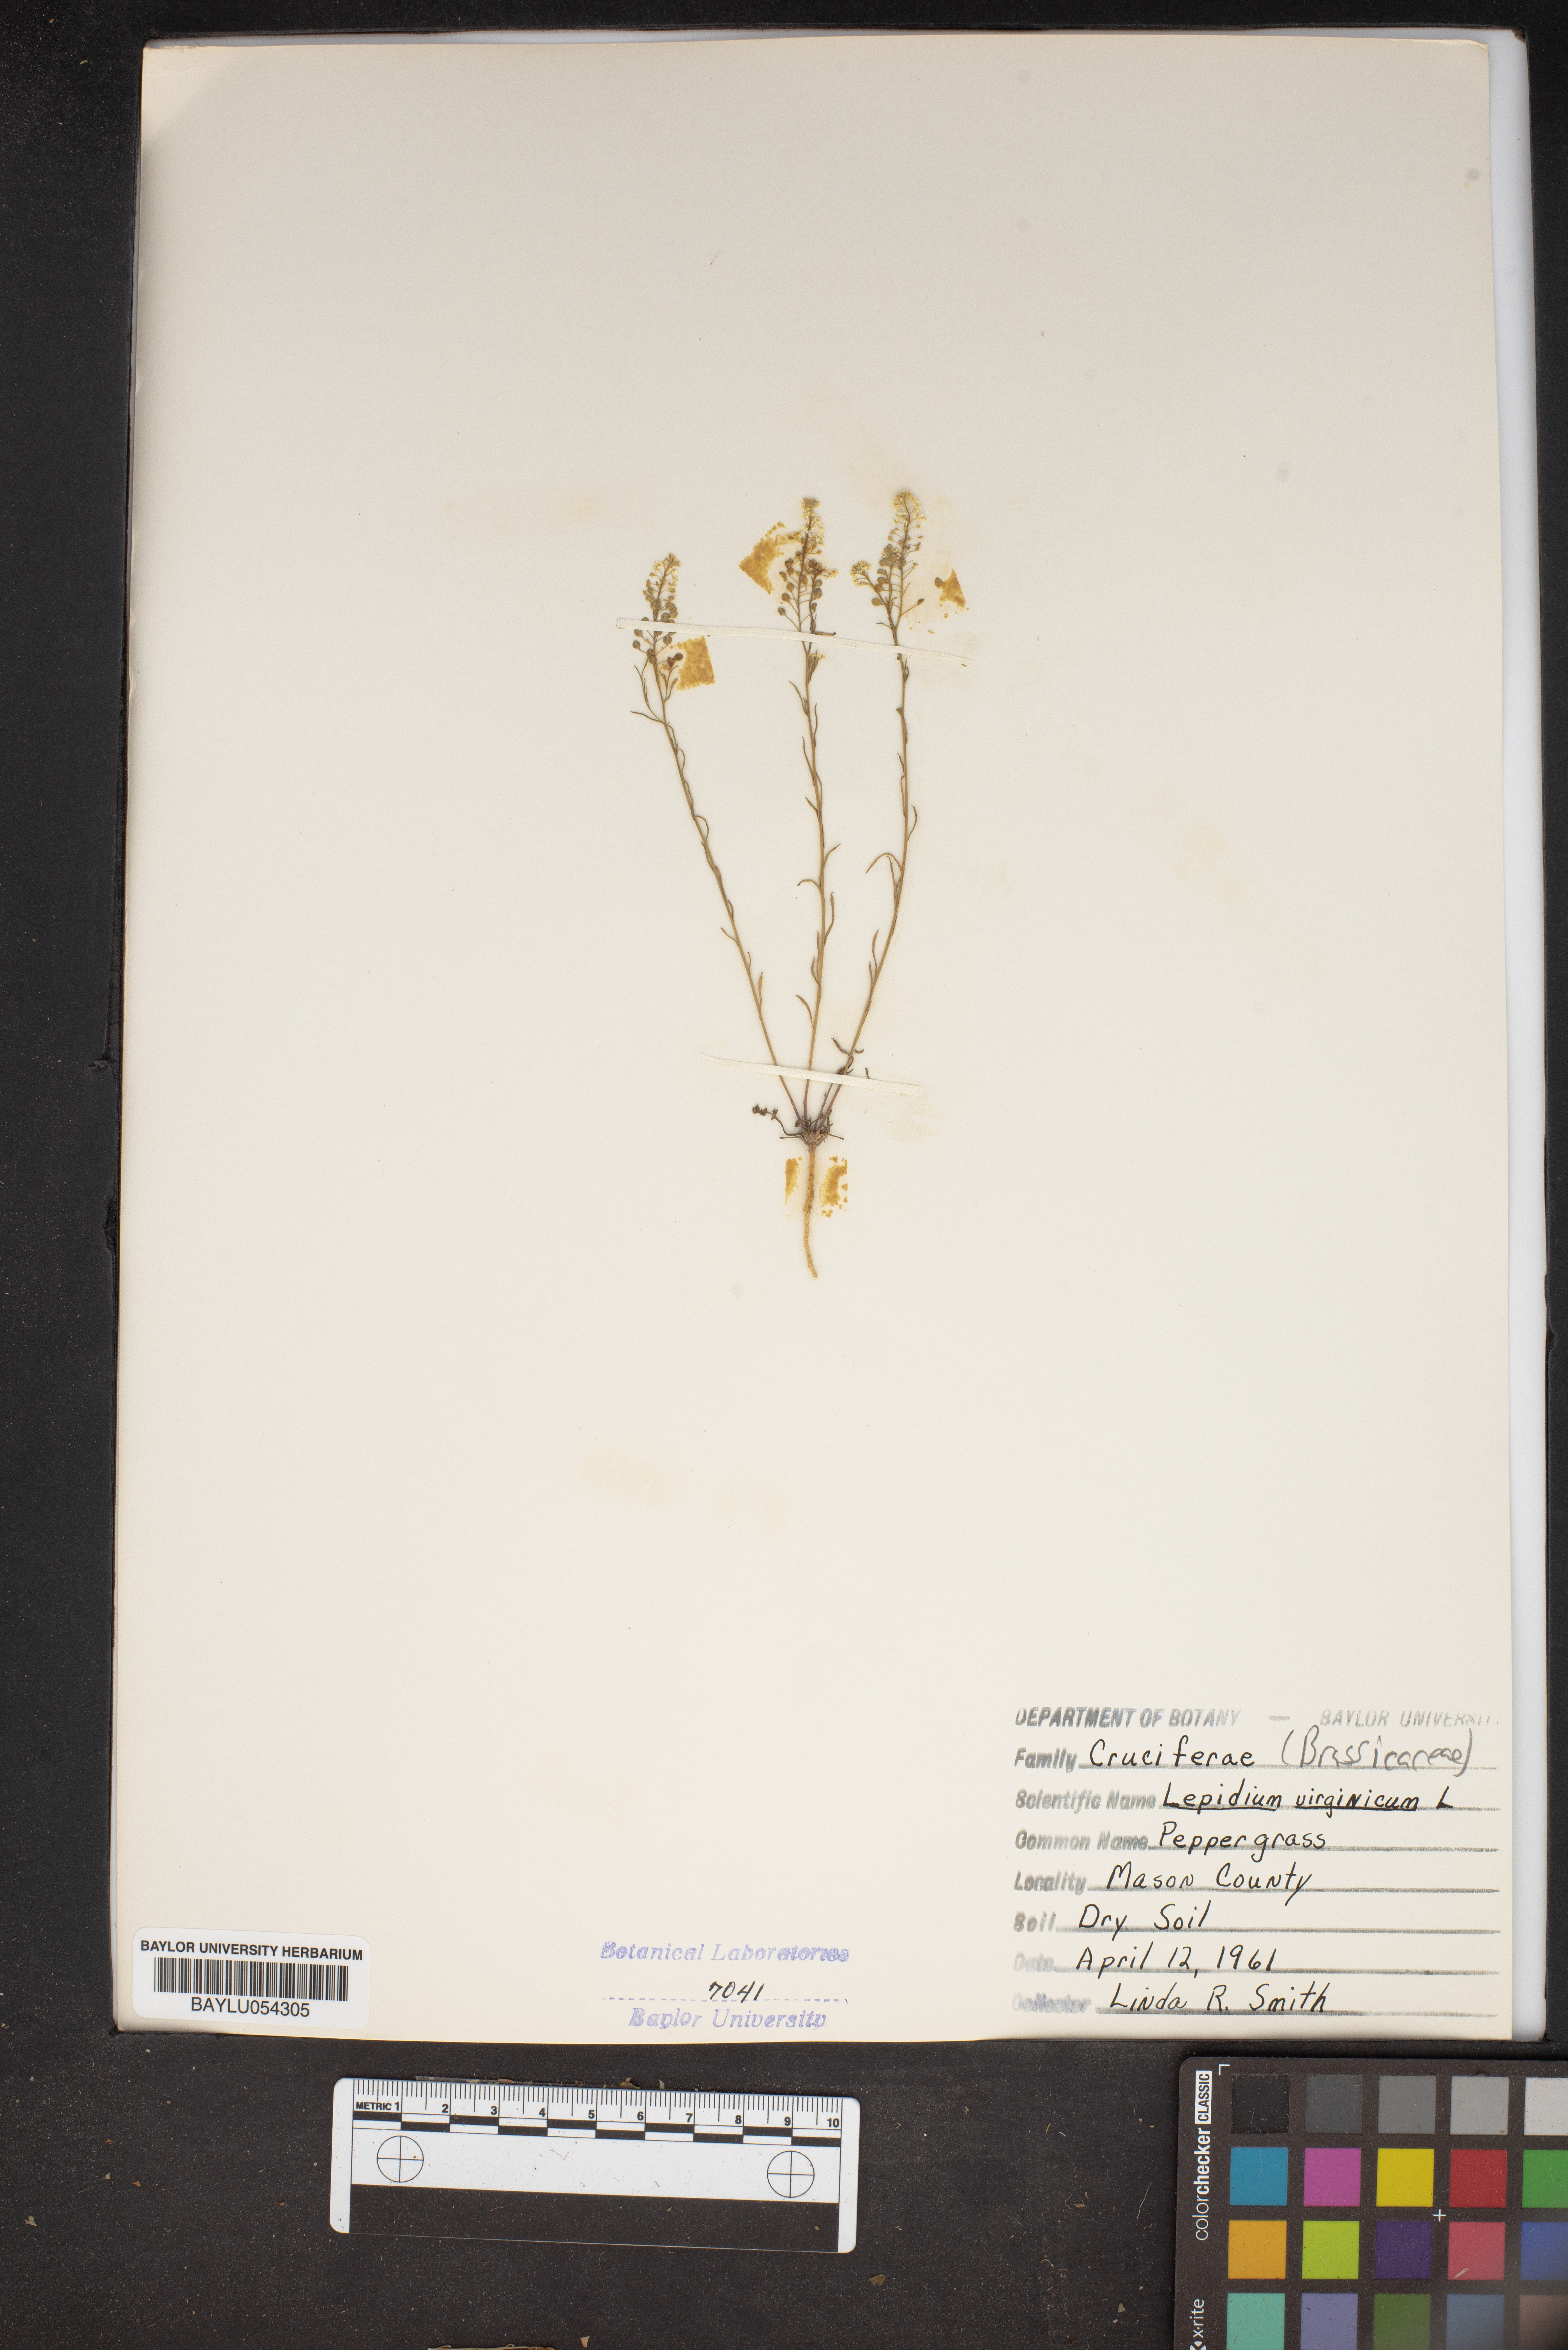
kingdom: Plantae
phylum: Tracheophyta
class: Magnoliopsida
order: Brassicales
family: Brassicaceae
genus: Lepidium
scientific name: Lepidium virginicum
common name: Least pepperwort
